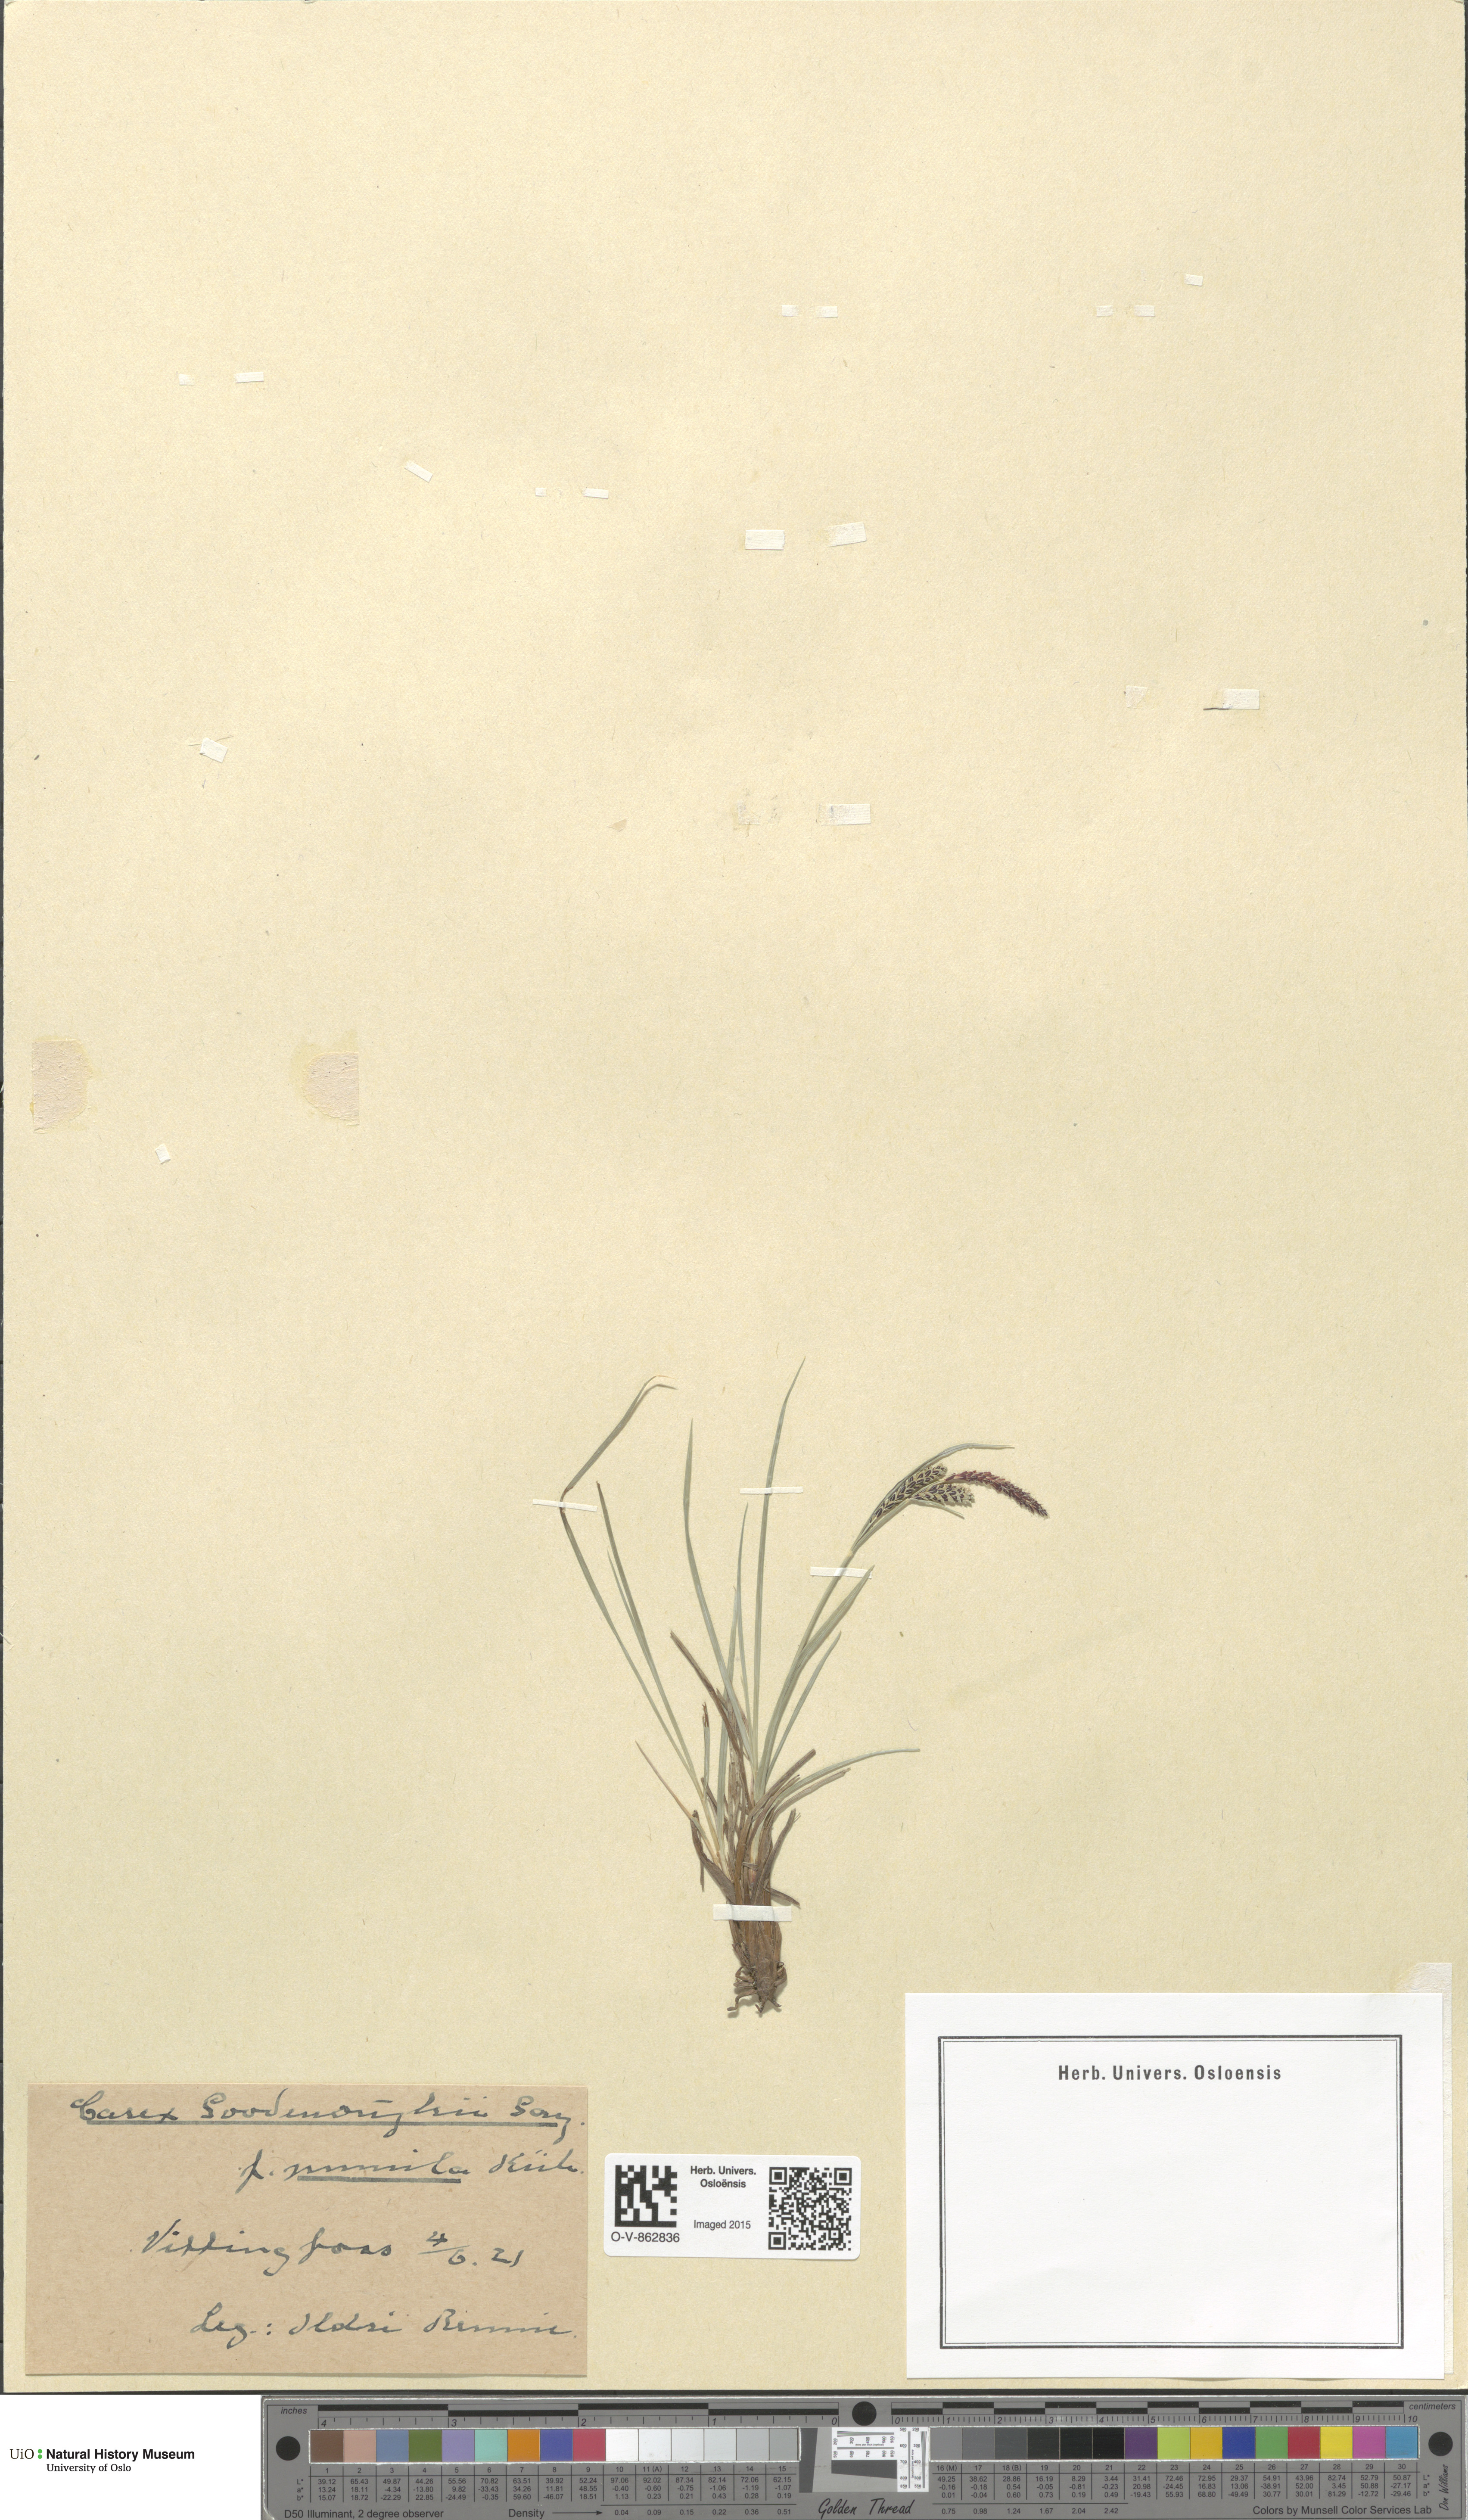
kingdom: Plantae
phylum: Tracheophyta
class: Liliopsida
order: Poales
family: Cyperaceae
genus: Carex
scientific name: Carex nigra
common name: Common sedge
